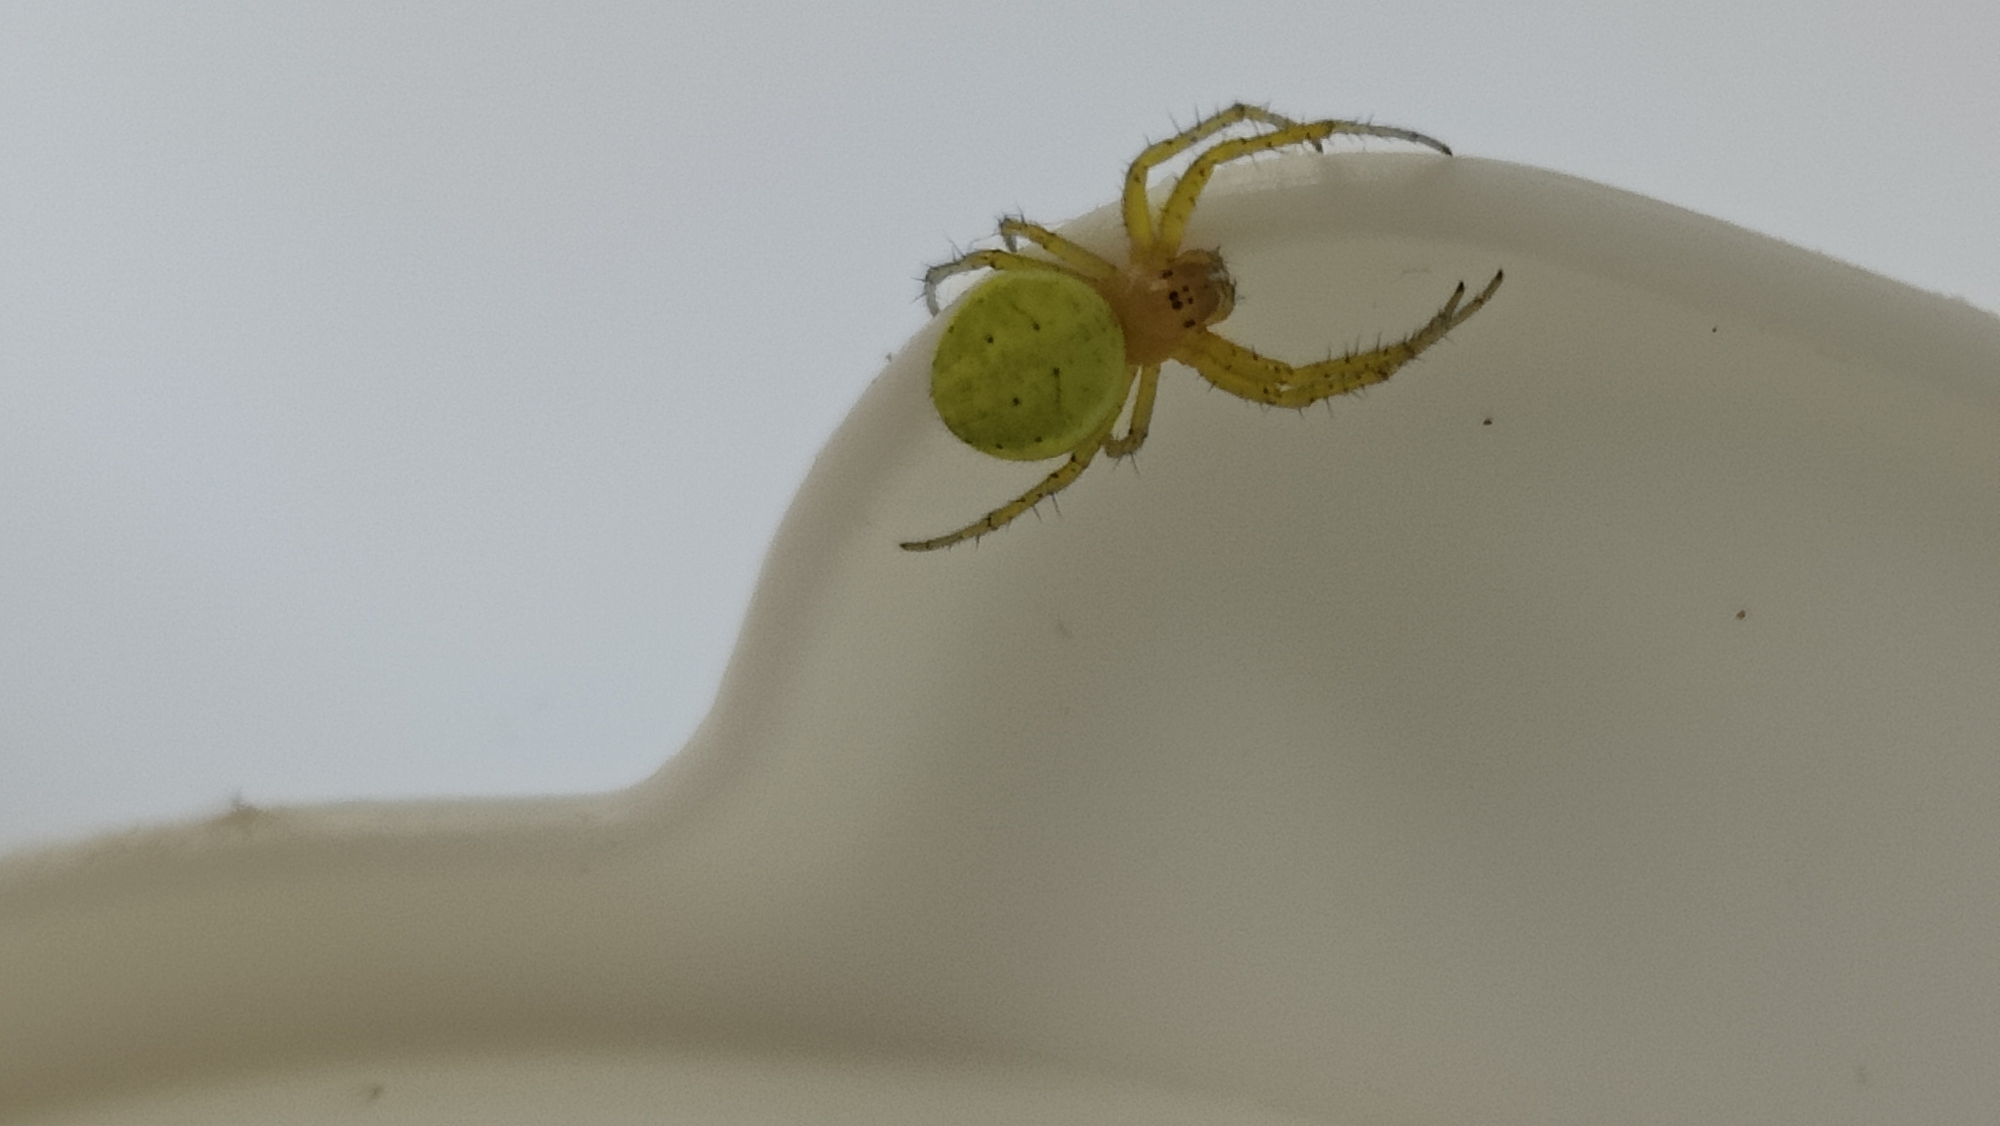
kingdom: Animalia
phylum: Arthropoda
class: Insecta
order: Coleoptera
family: Lucanidae
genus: Dorcus
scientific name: Dorcus parallelipipedus
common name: Bøghjort
